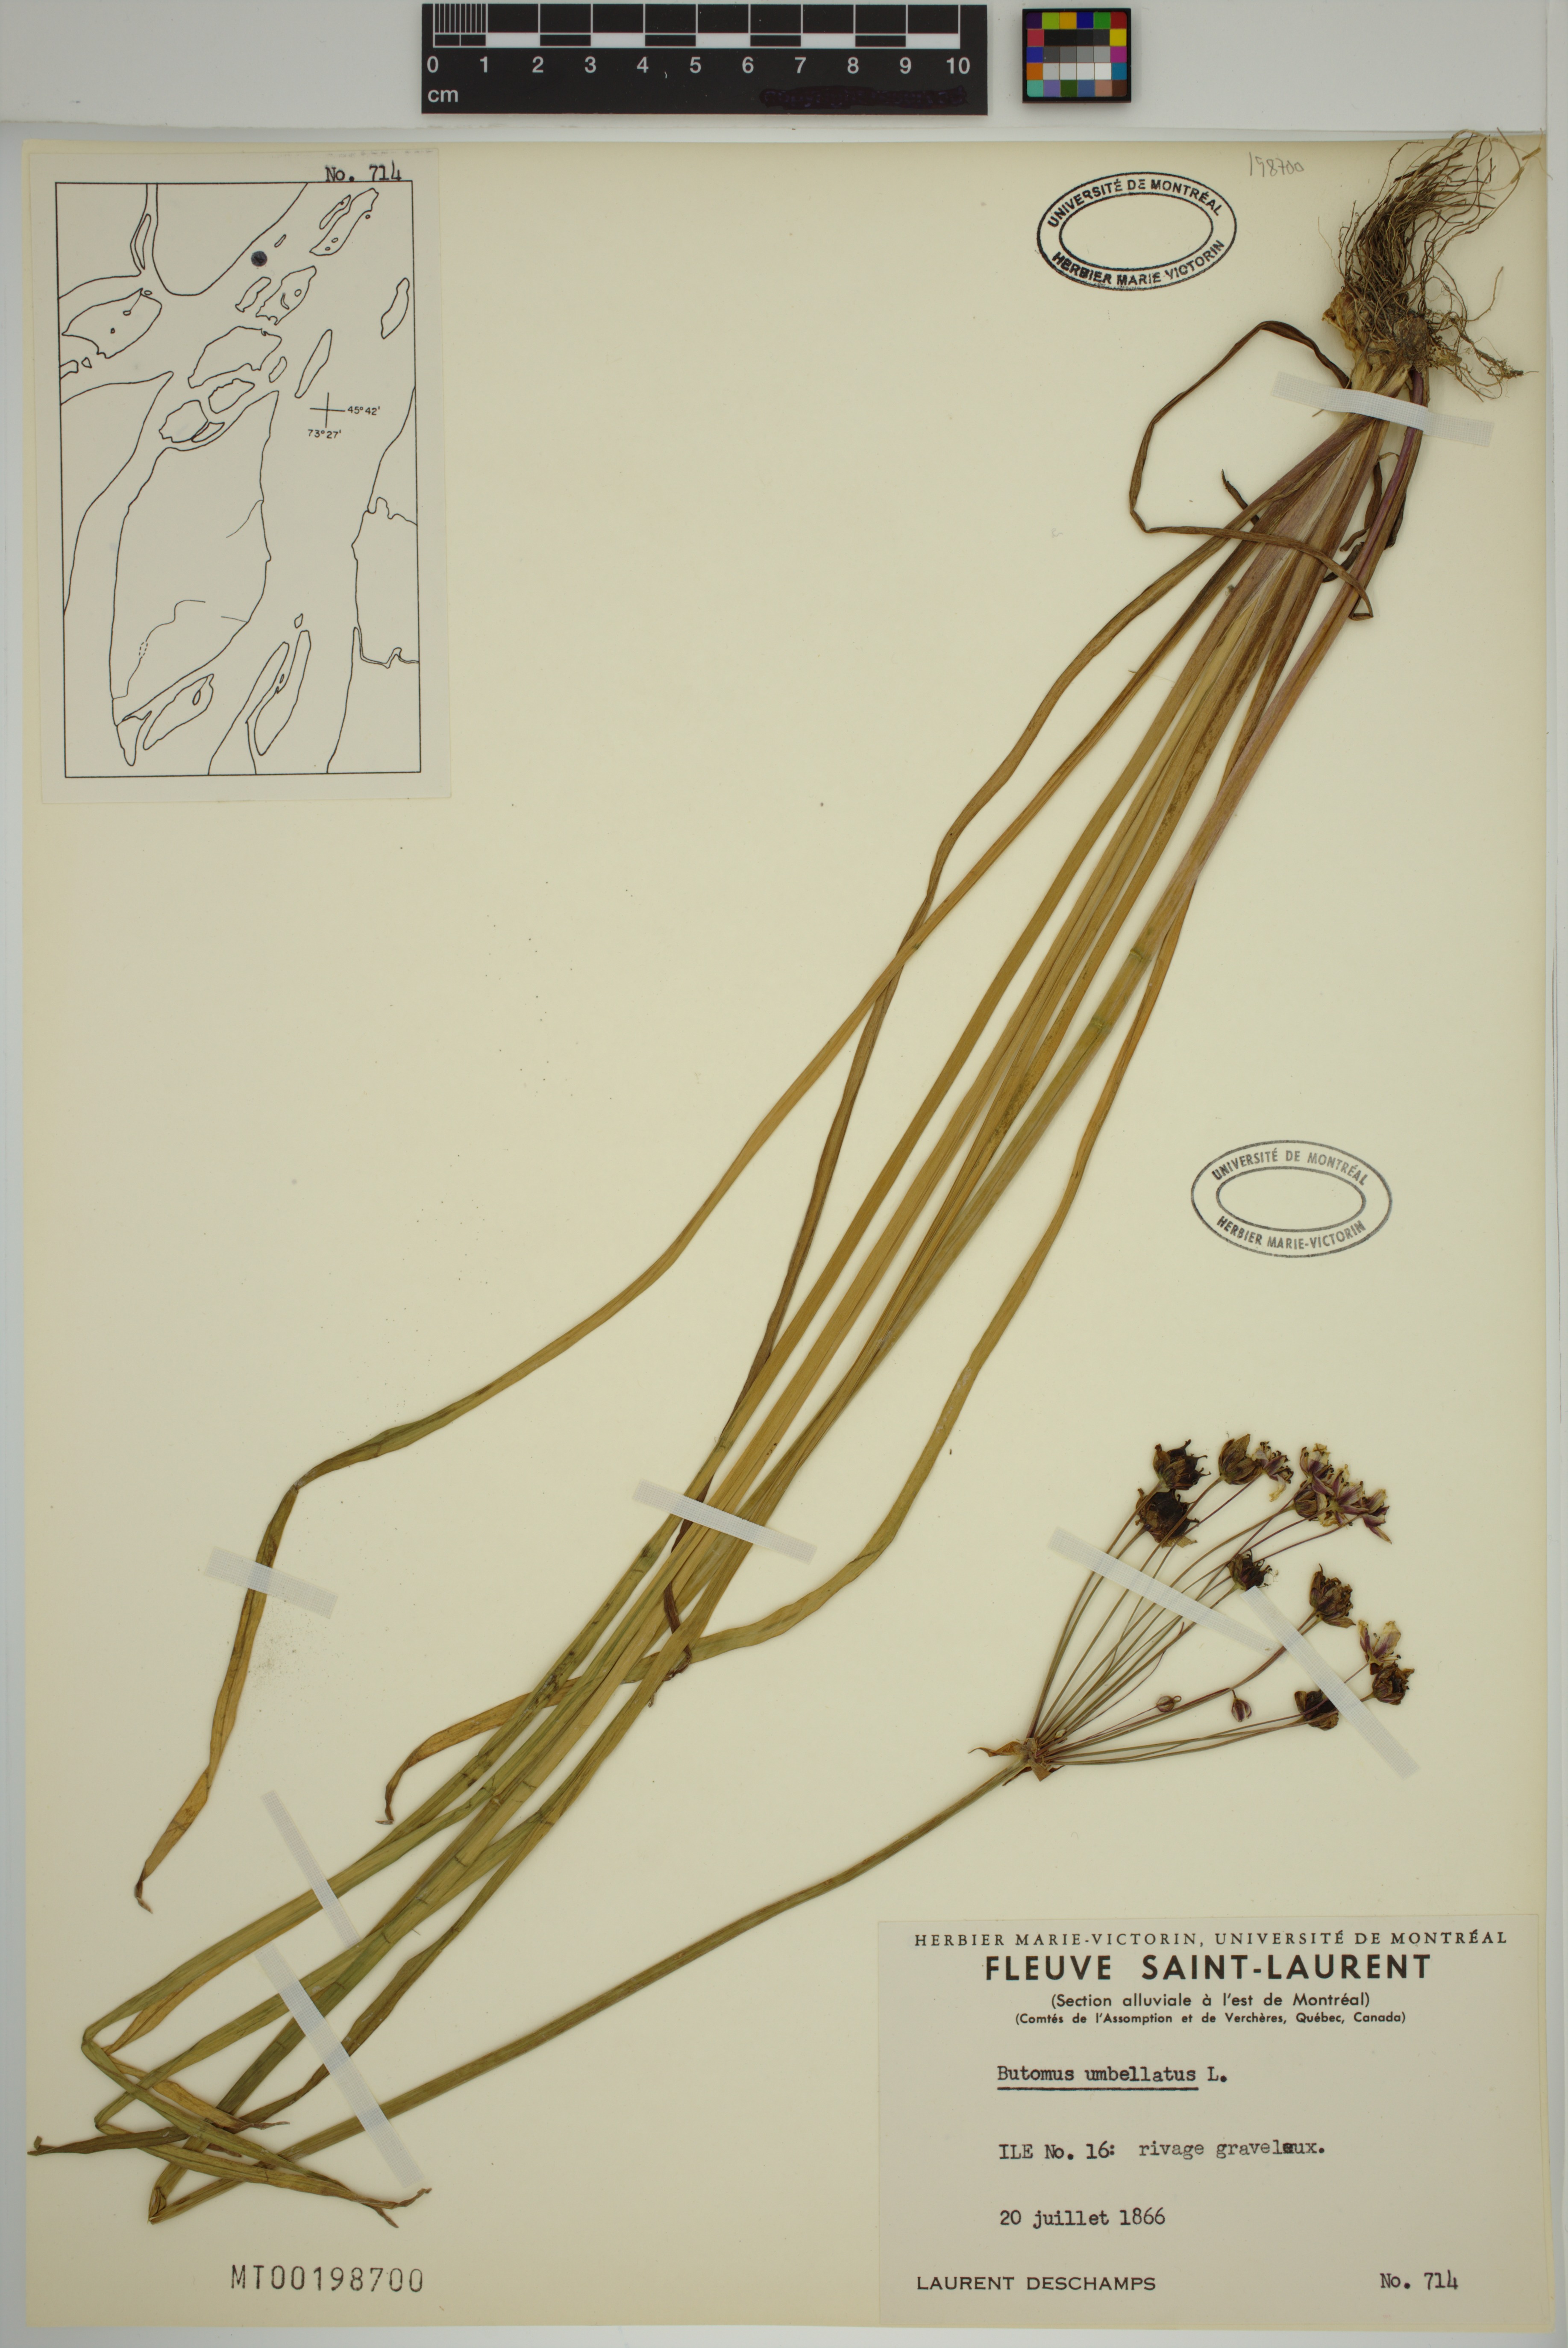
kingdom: Plantae
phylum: Tracheophyta
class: Liliopsida
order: Alismatales
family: Butomaceae
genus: Butomus
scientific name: Butomus umbellatus
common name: Flowering-rush
